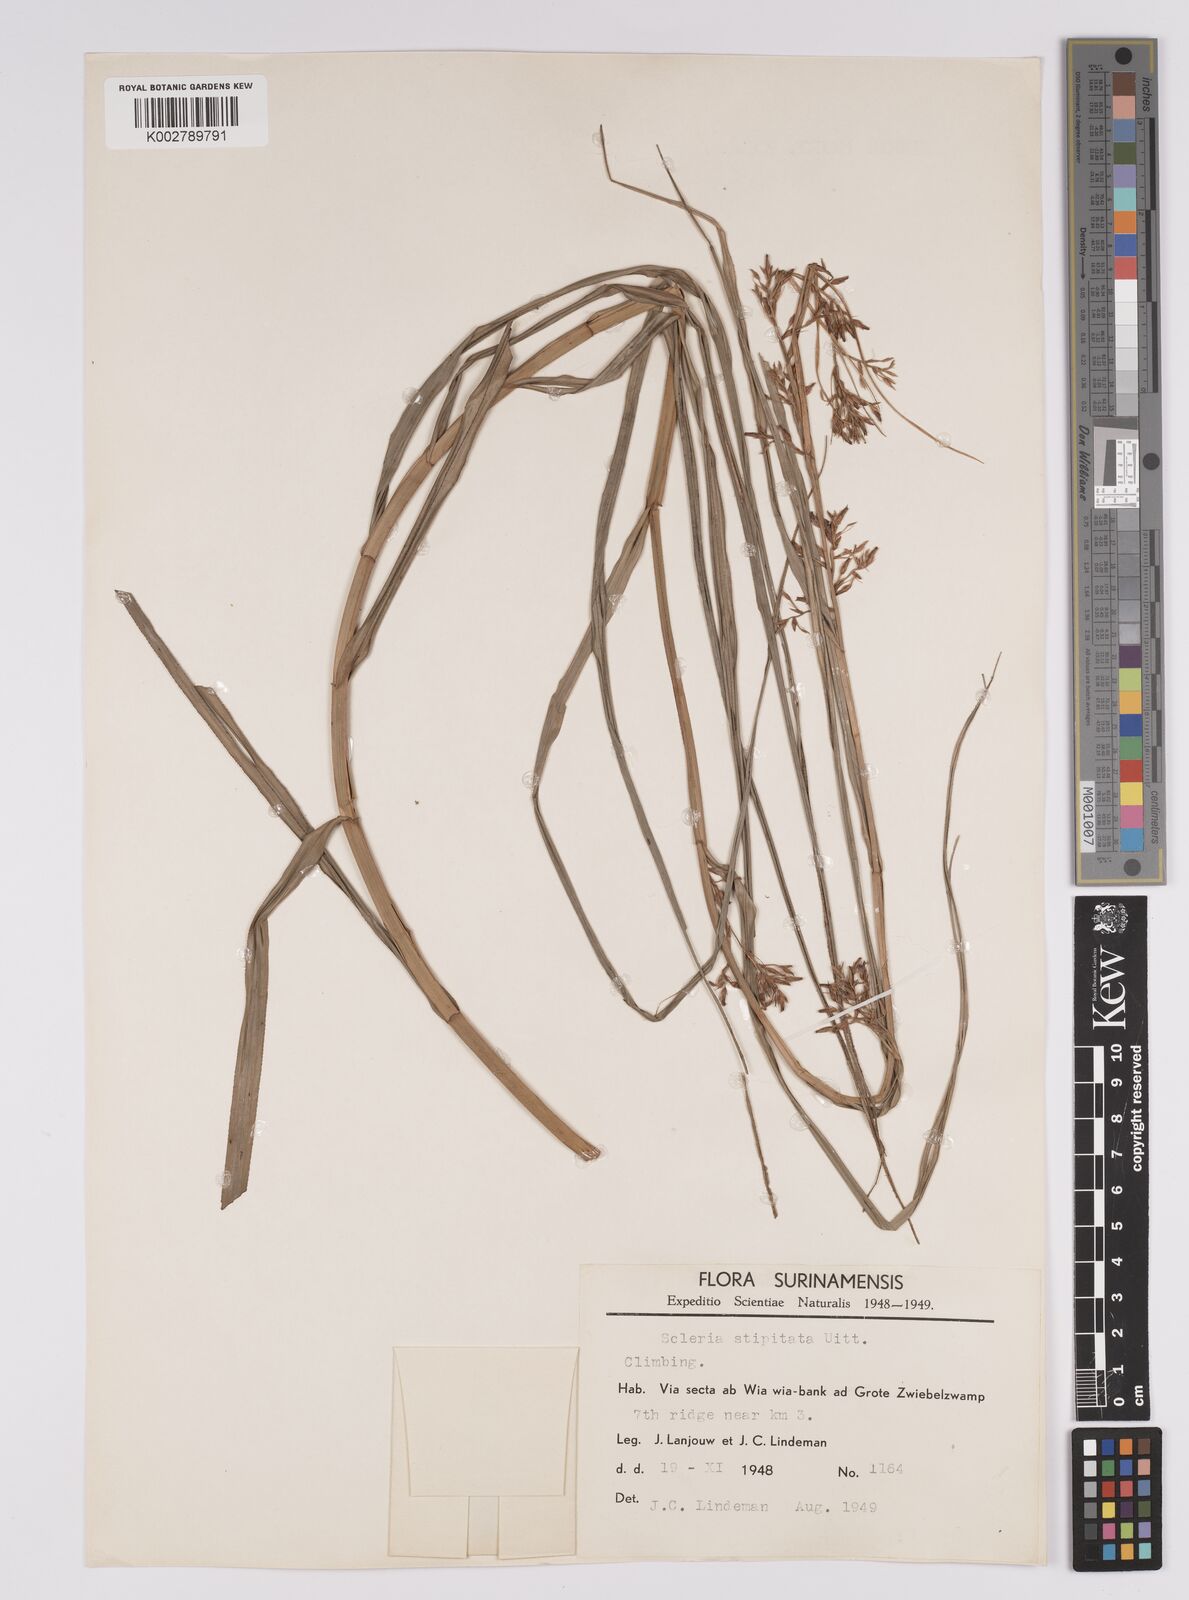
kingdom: Plantae
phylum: Tracheophyta
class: Liliopsida
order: Poales
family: Cyperaceae
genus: Scleria
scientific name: Scleria stipitata
